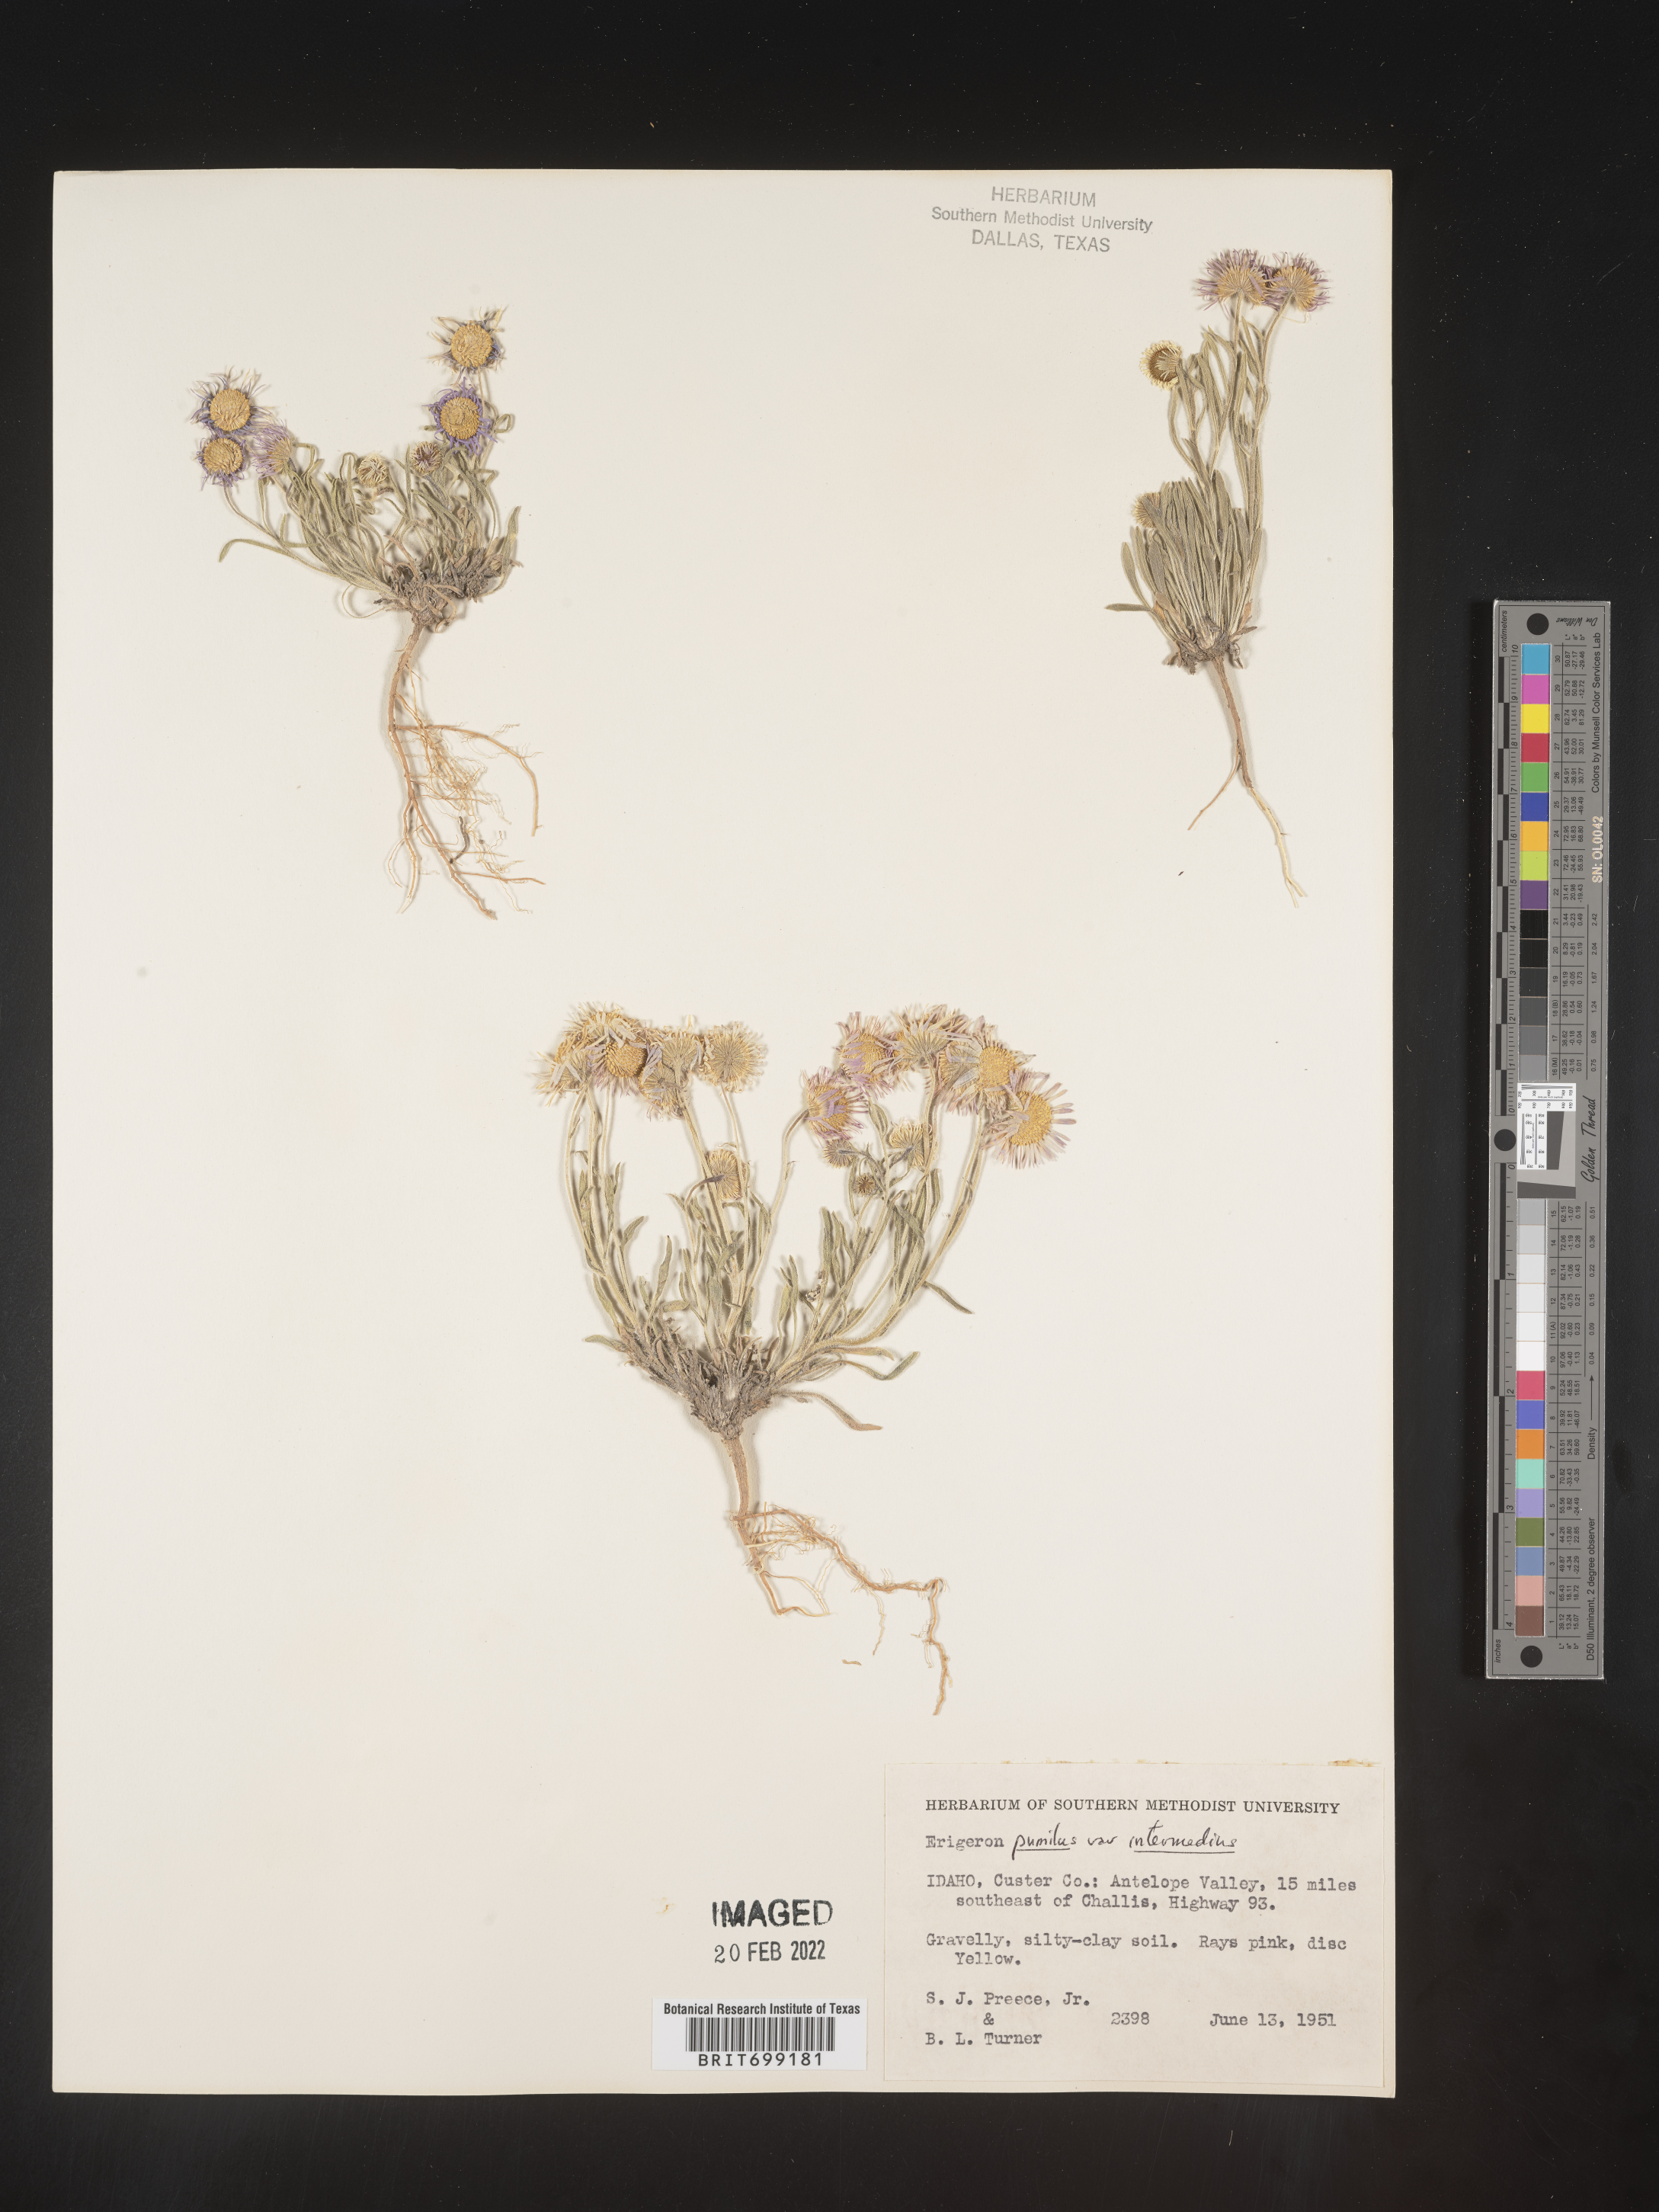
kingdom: Plantae
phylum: Tracheophyta
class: Magnoliopsida
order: Asterales
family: Asteraceae
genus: Erigeron
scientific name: Erigeron pumilus
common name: Shaggy fleabane
